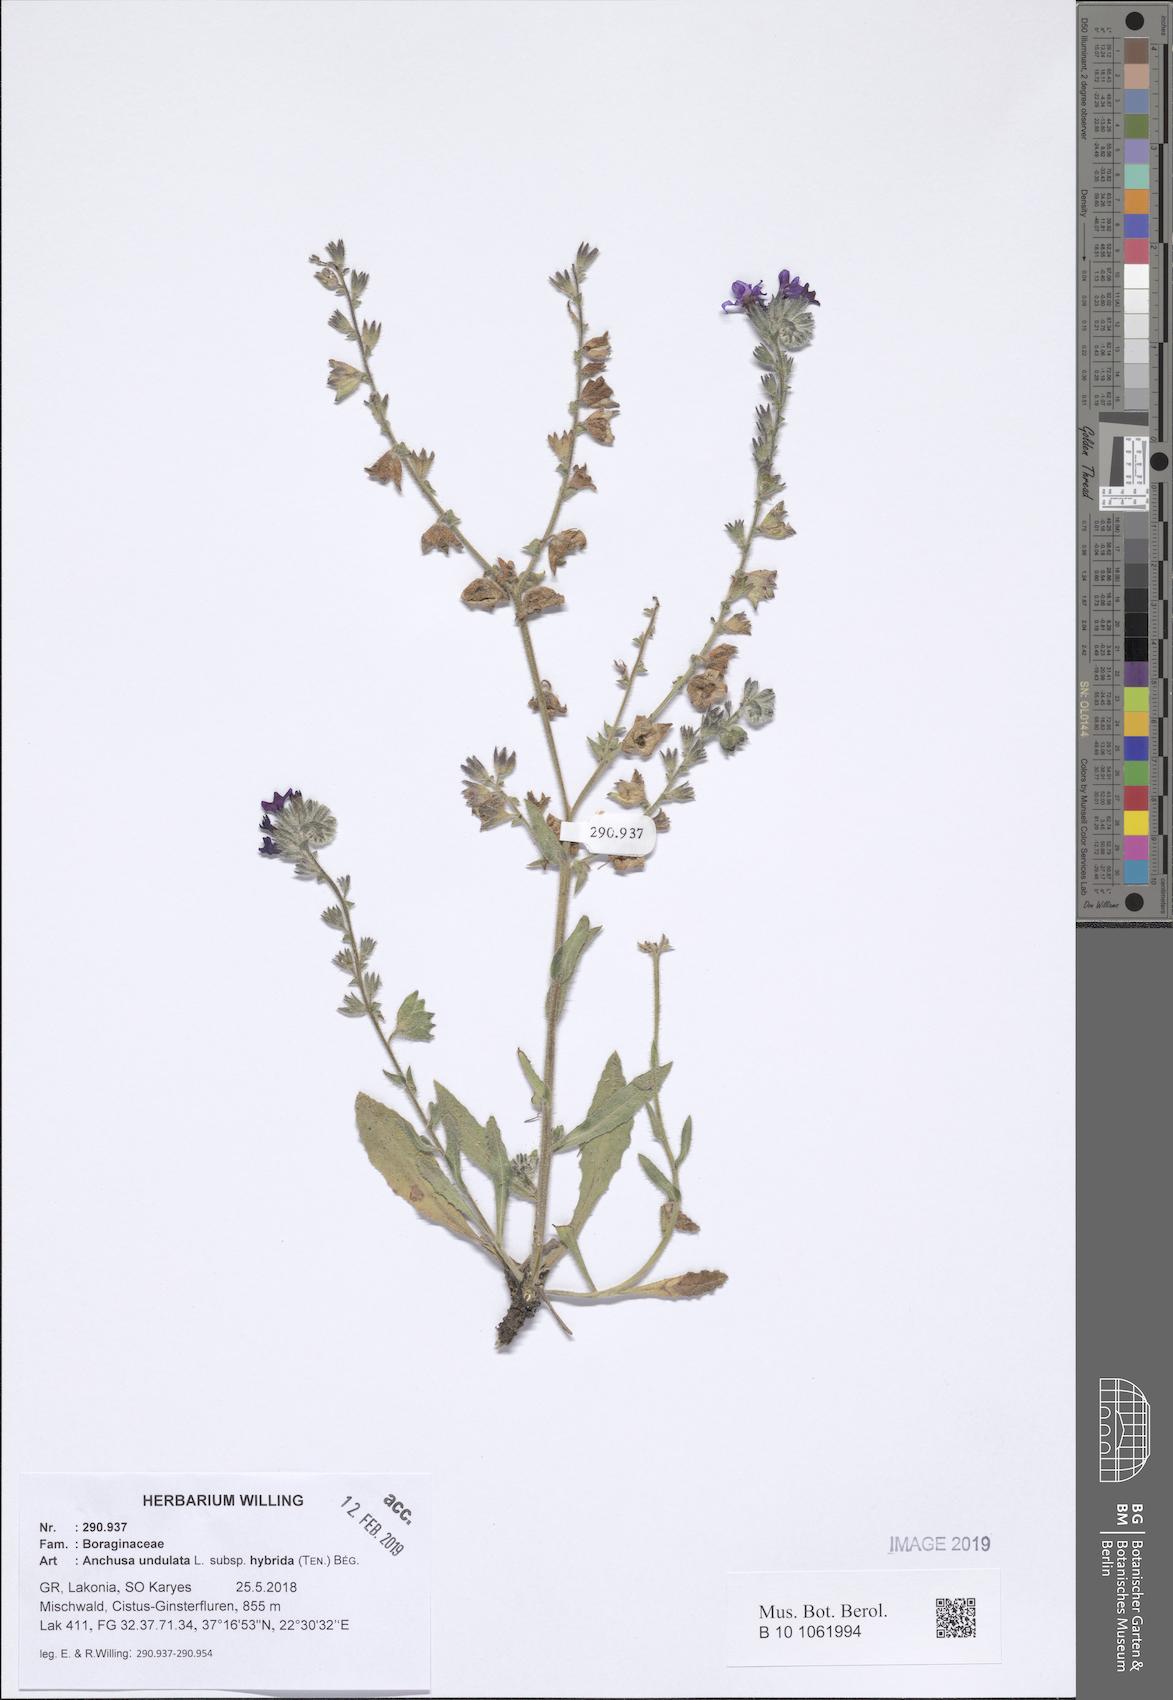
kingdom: Plantae
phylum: Tracheophyta
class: Magnoliopsida
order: Boraginales
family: Boraginaceae
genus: Anchusa
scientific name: Anchusa undulata
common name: Undulate alkanet
